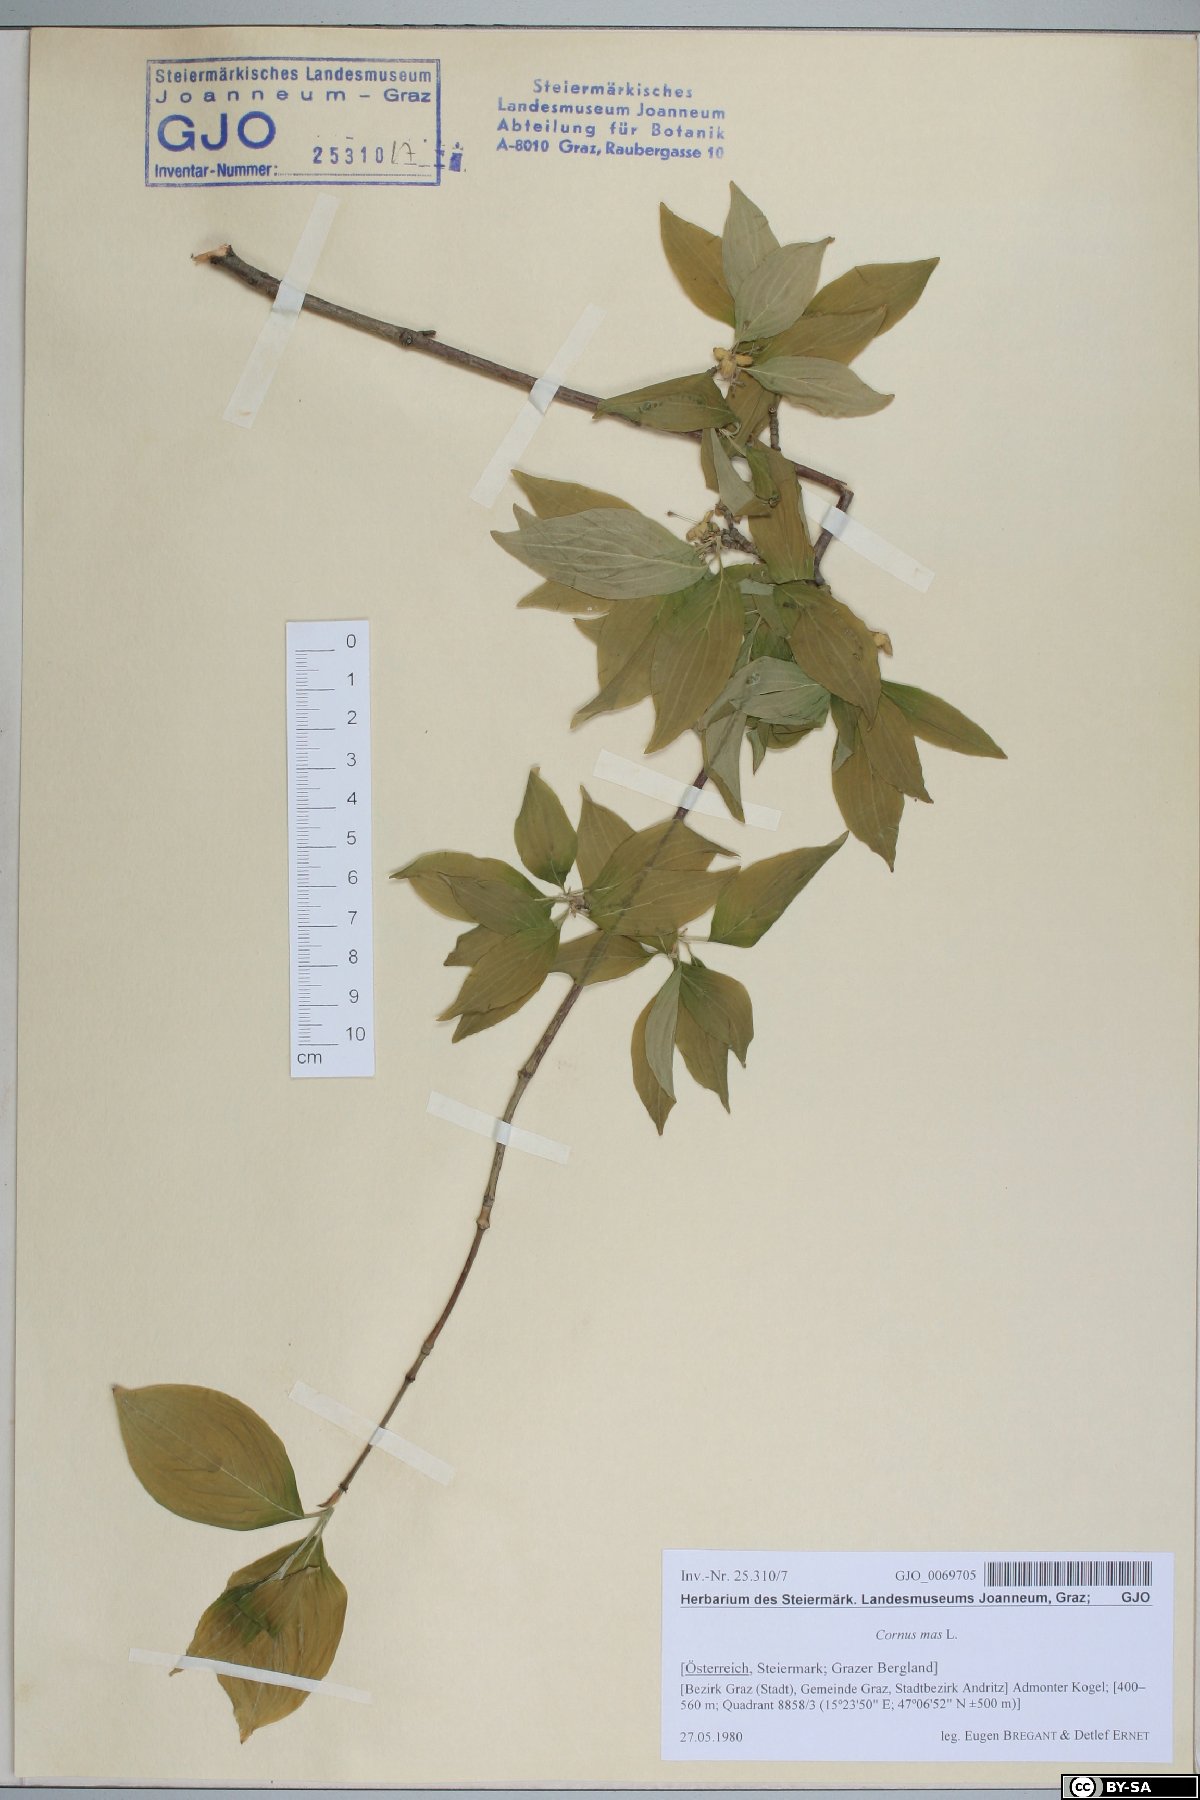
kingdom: Plantae
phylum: Tracheophyta
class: Magnoliopsida
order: Cornales
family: Cornaceae
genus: Cornus
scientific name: Cornus mas
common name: Cornelian-cherry
